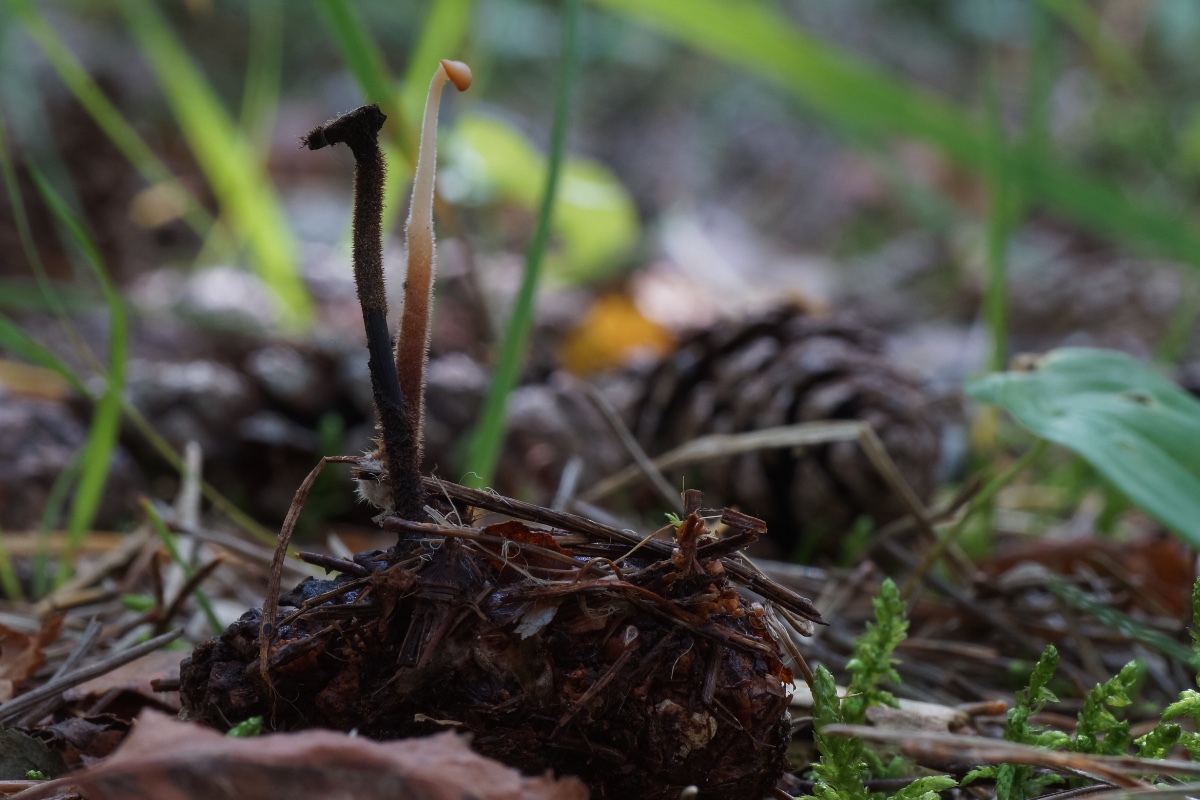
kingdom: Fungi
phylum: Basidiomycota
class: Agaricomycetes
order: Russulales
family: Auriscalpiaceae
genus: Auriscalpium
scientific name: Auriscalpium vulgare
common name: koglepigsvamp
